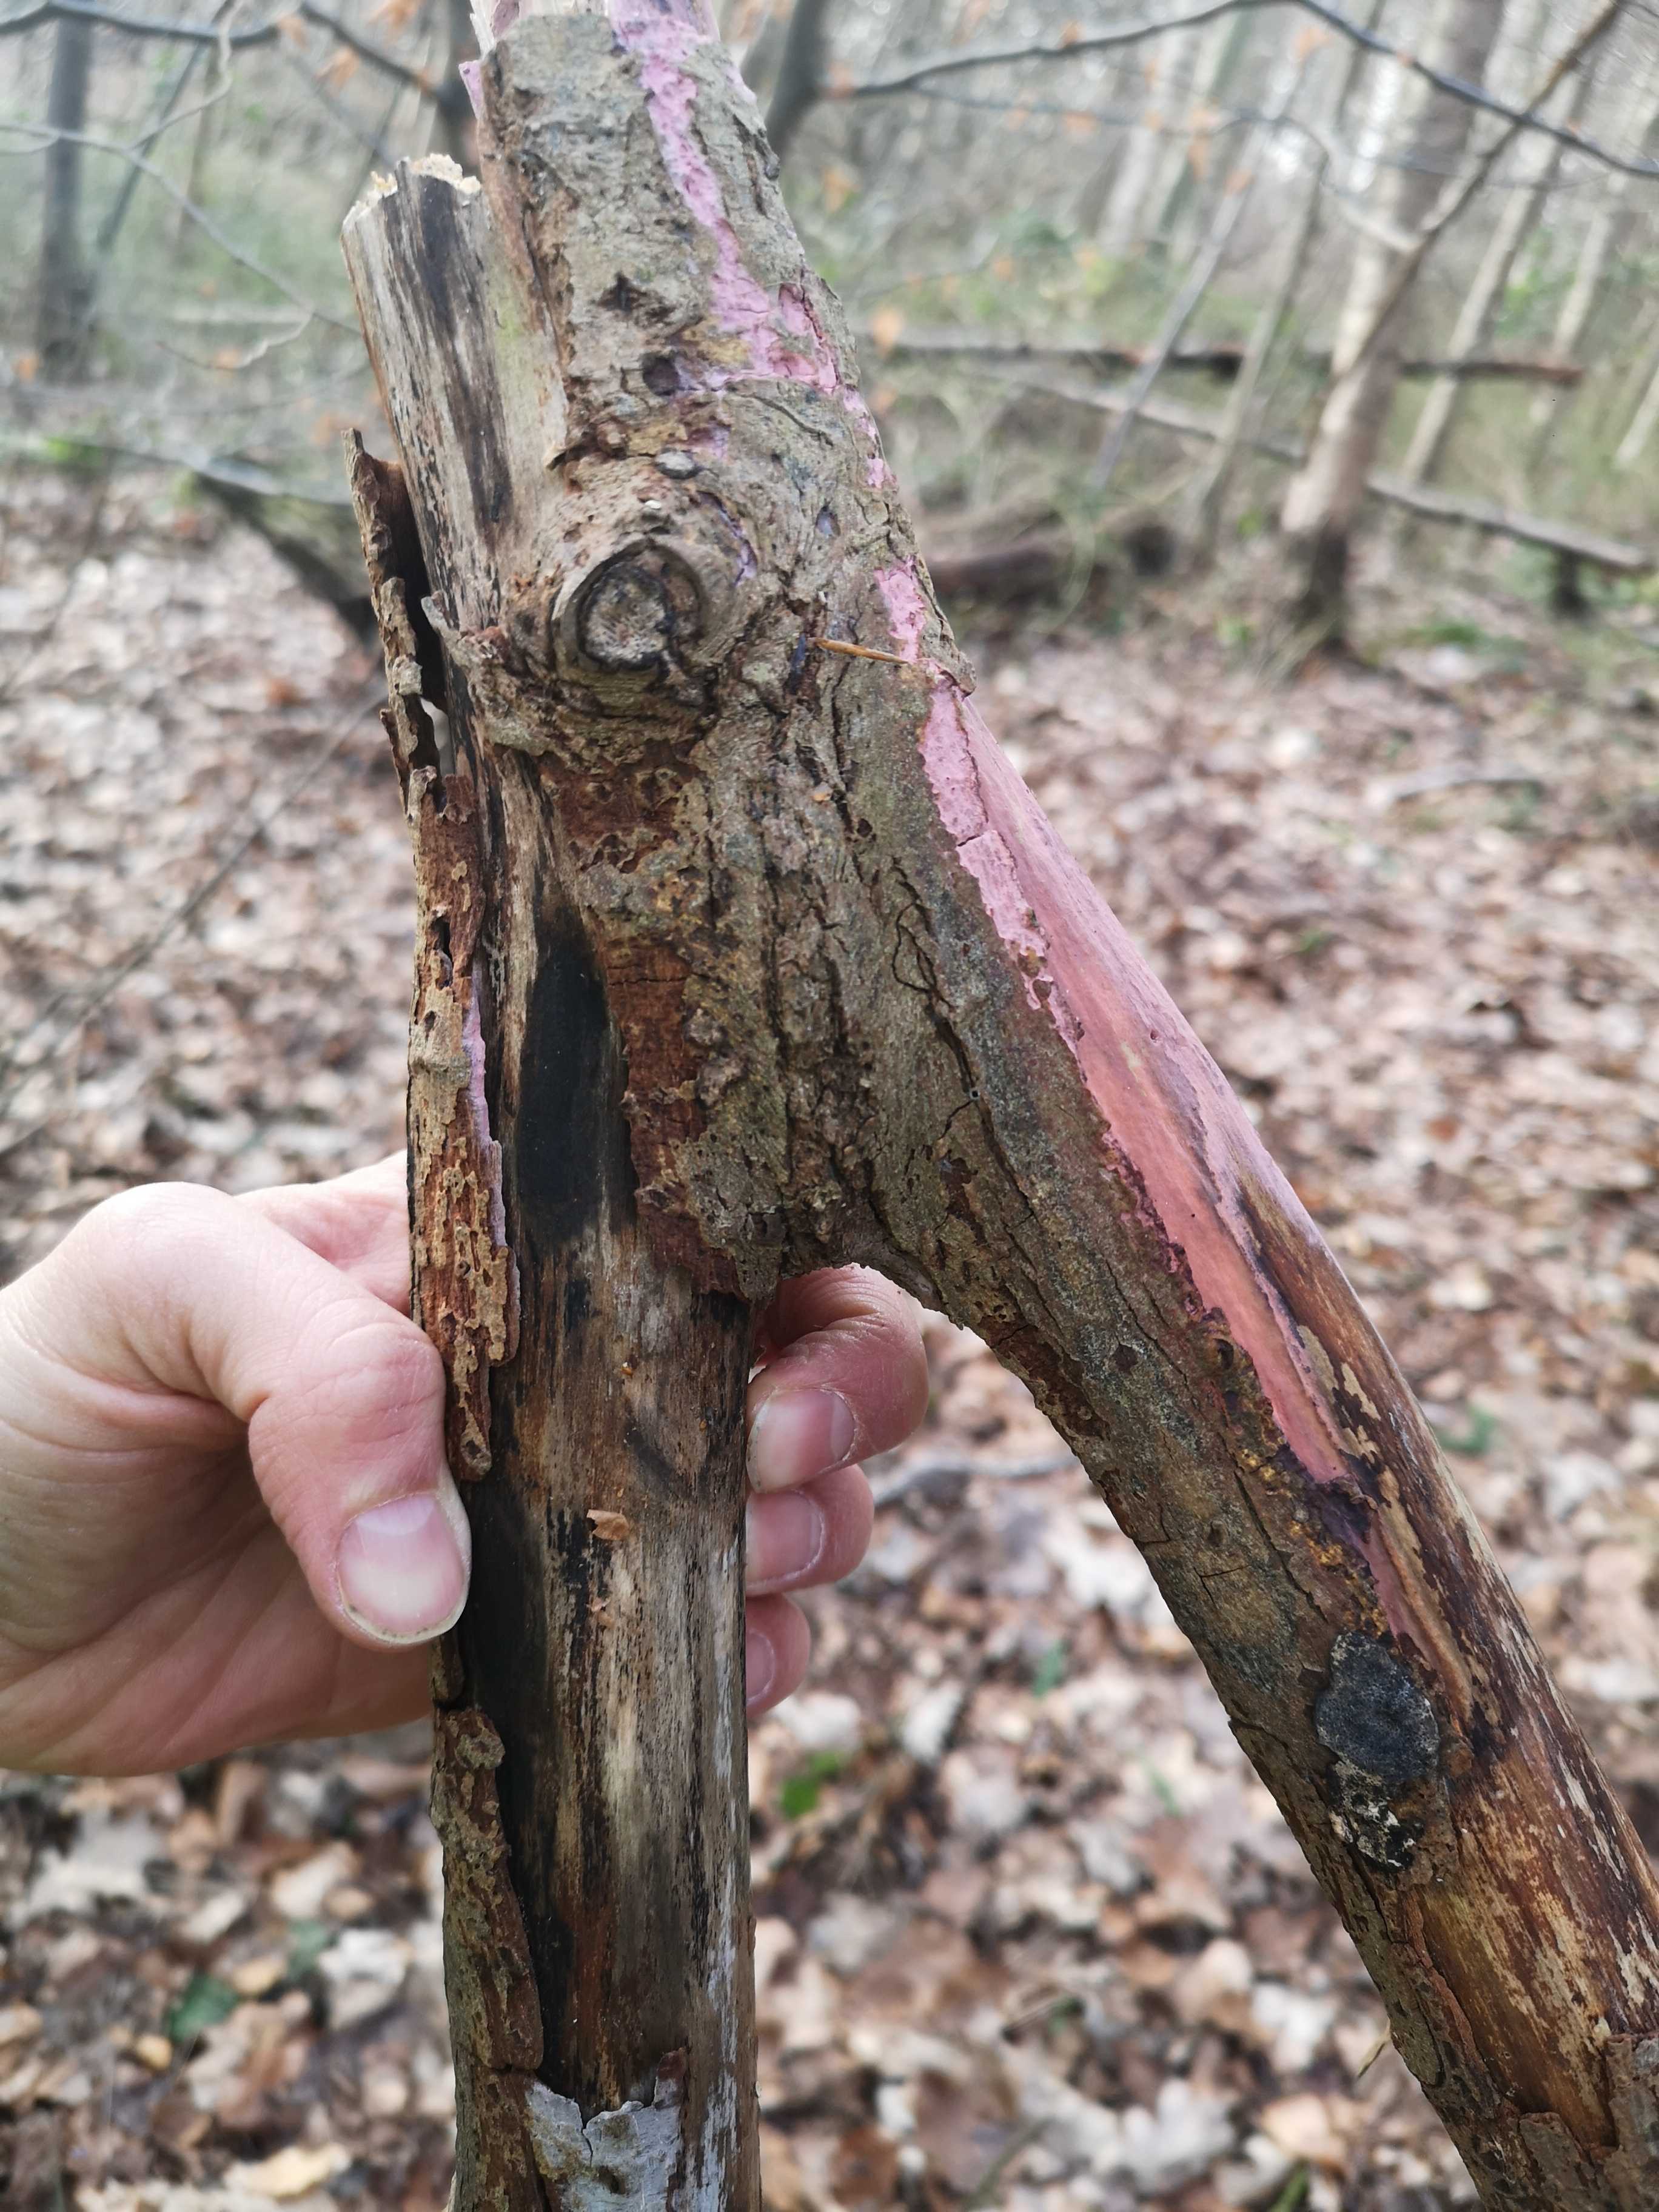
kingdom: Fungi
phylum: Basidiomycota
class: Agaricomycetes
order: Cantharellales
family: Tulasnellaceae
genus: Tulasnella
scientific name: Tulasnella violea
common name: violet ballonhinde
